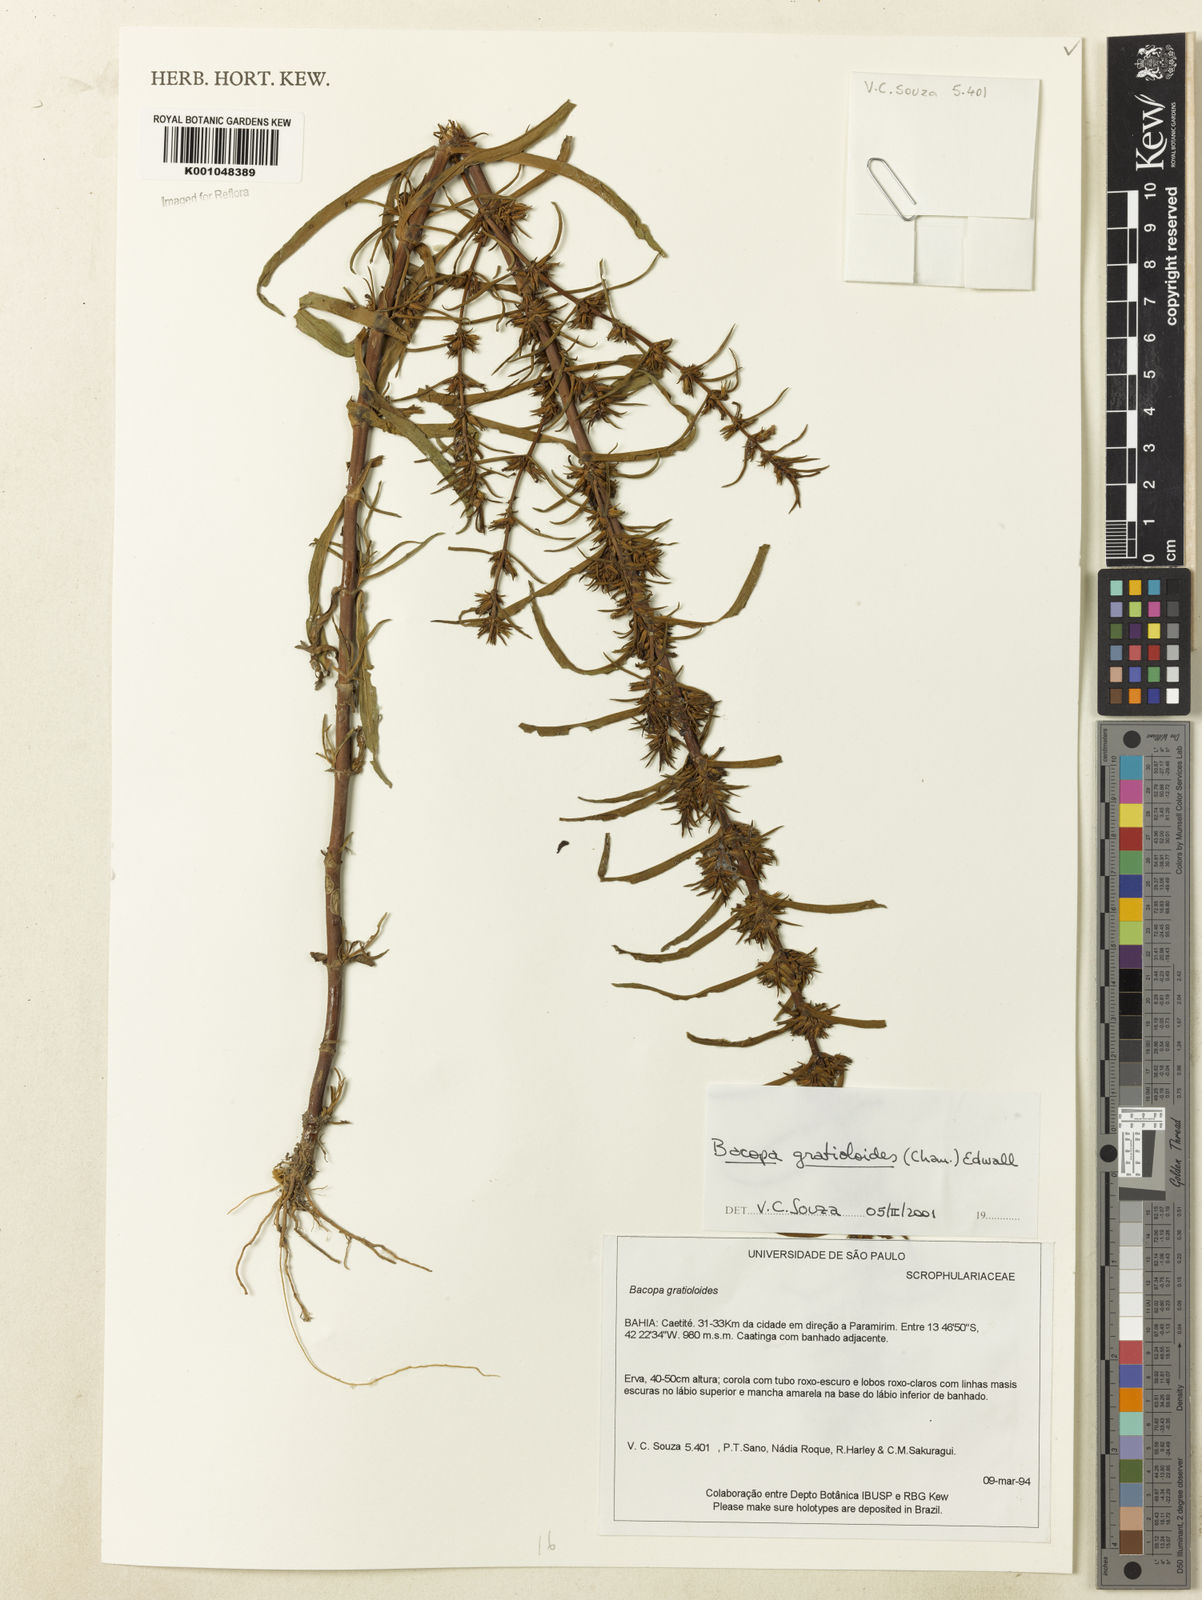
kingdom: Plantae
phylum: Tracheophyta
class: Magnoliopsida
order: Lamiales
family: Plantaginaceae
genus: Bacopa
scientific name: Bacopa
